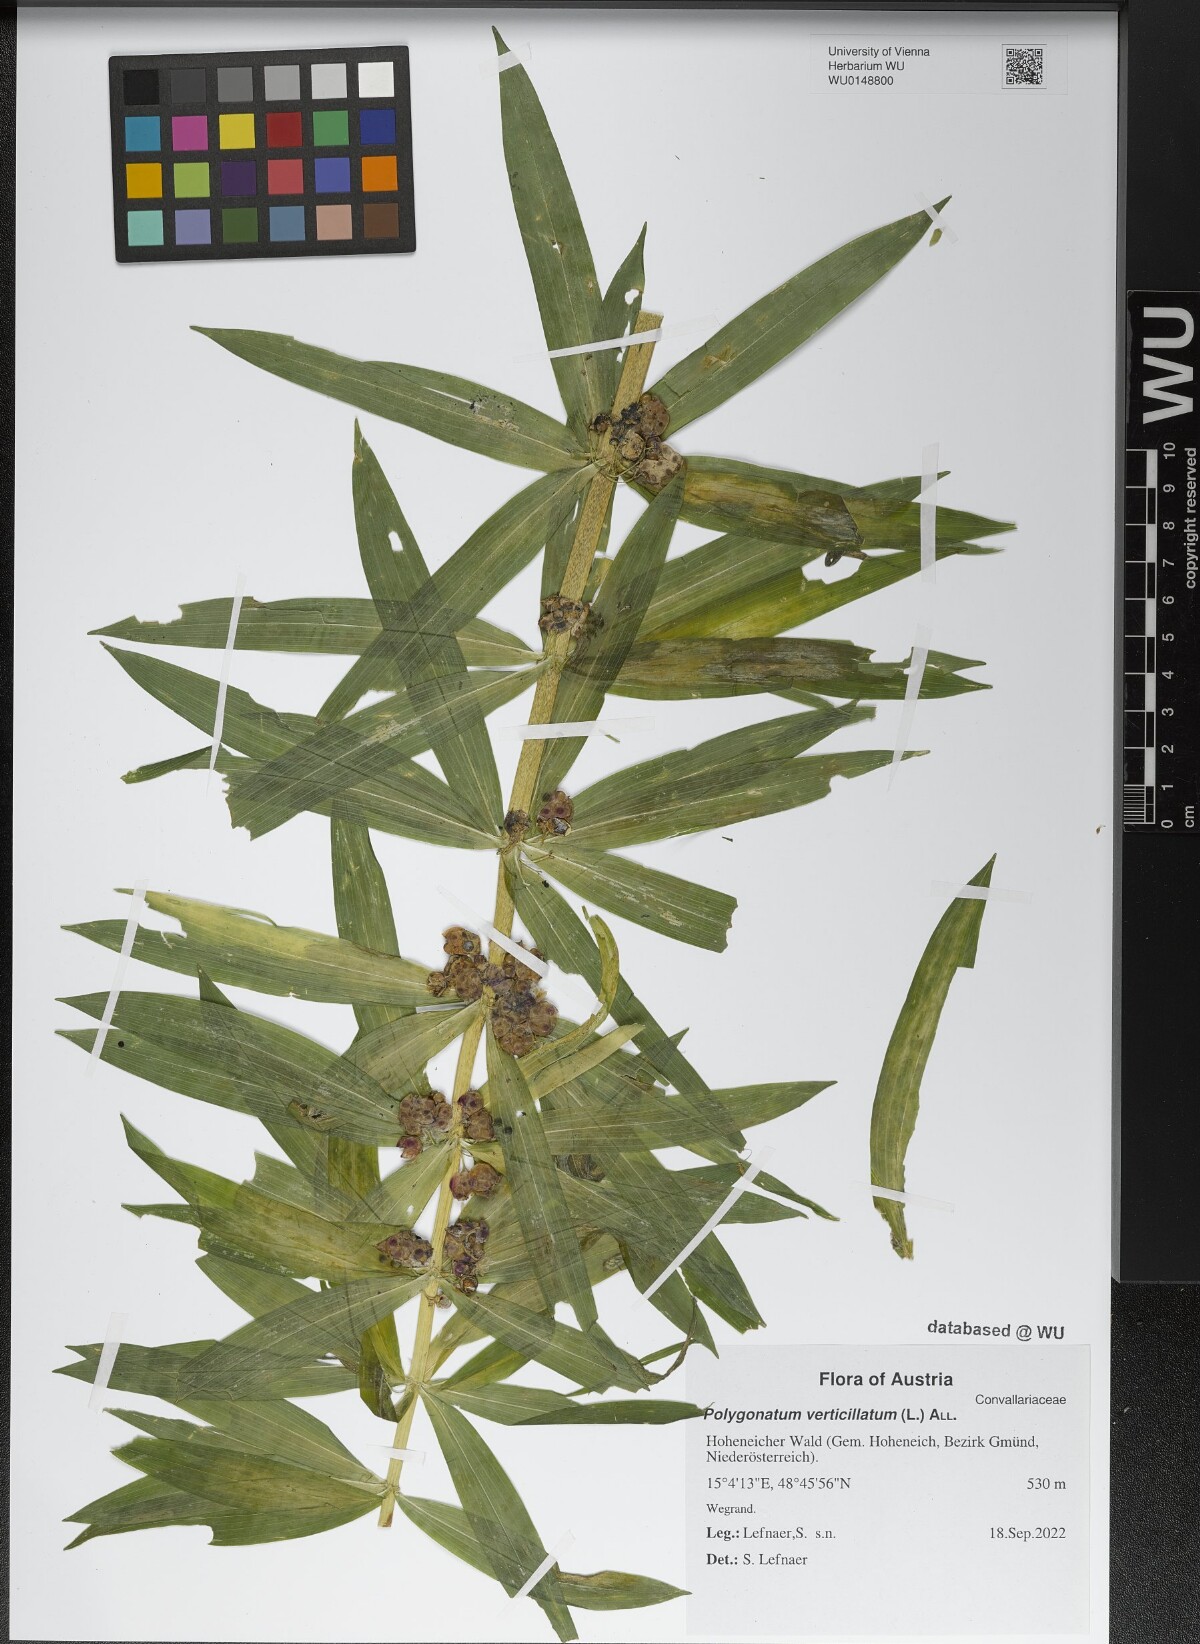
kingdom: Plantae
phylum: Tracheophyta
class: Liliopsida
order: Asparagales
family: Asparagaceae
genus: Polygonatum
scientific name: Polygonatum verticillatum
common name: Whorled solomon's-seal
